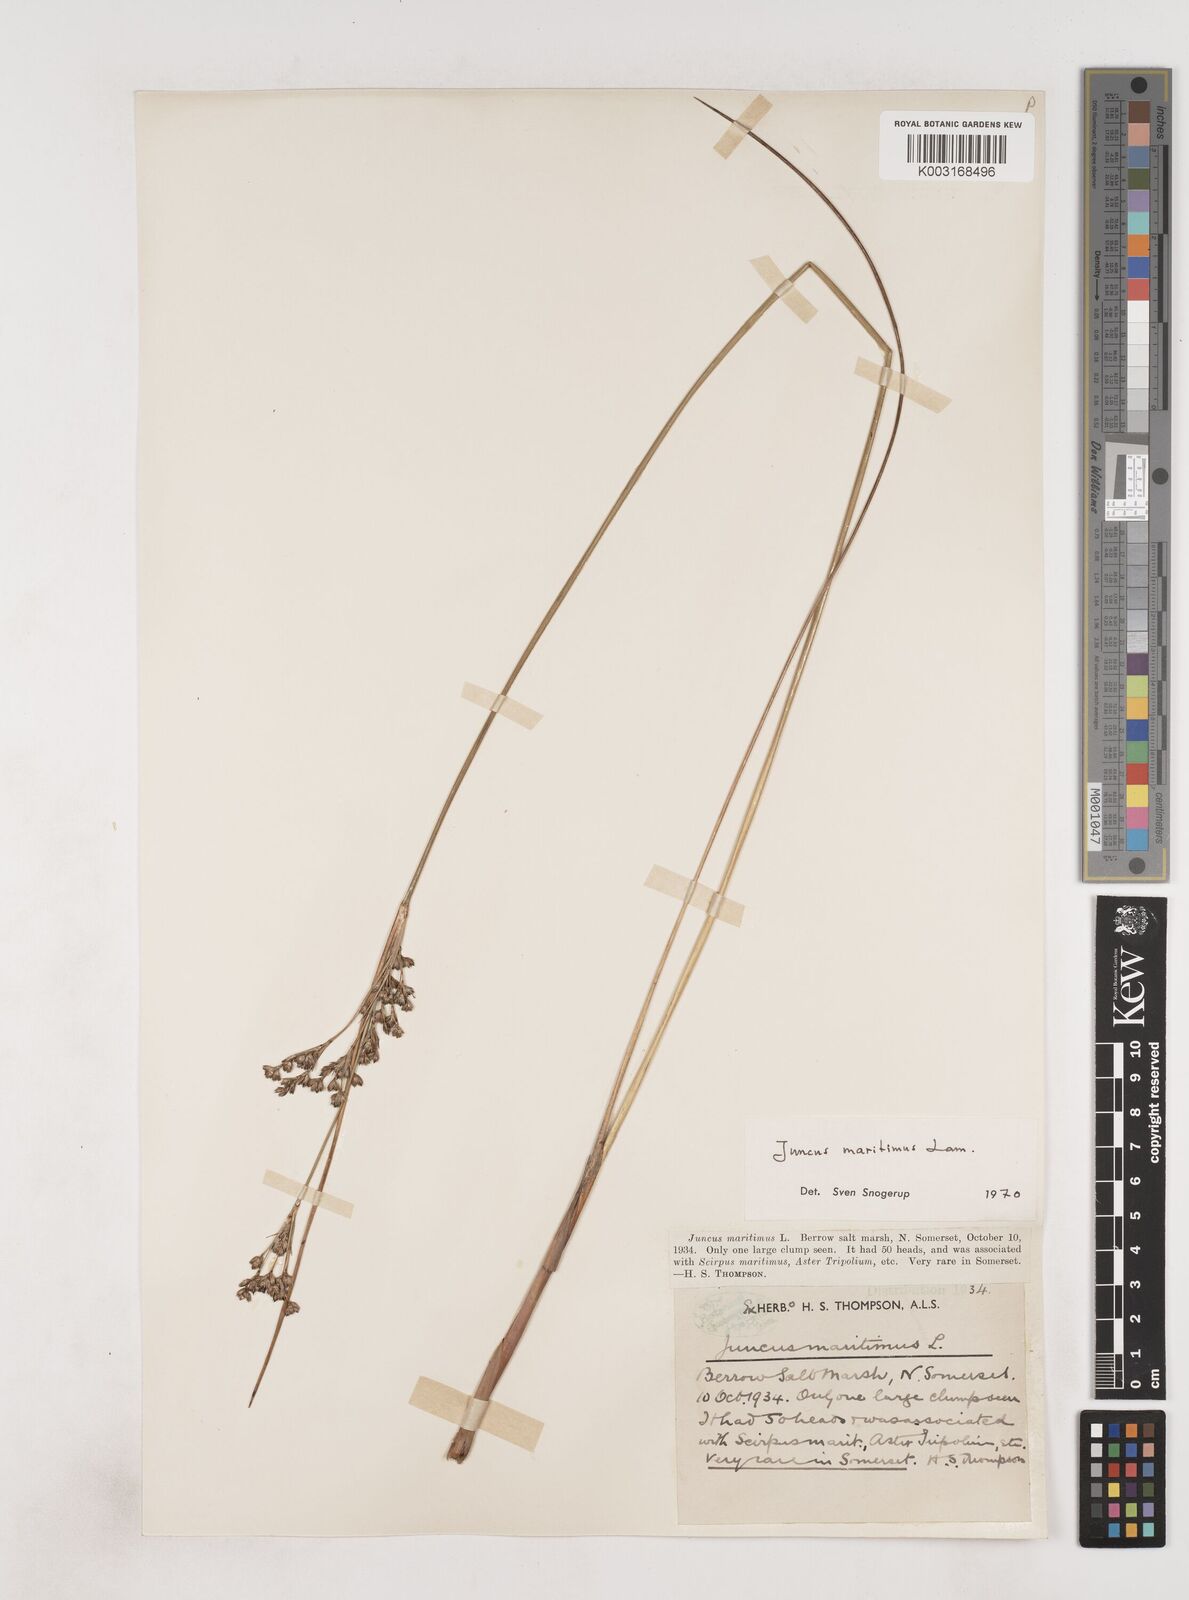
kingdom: Plantae
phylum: Tracheophyta
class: Liliopsida
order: Poales
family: Juncaceae
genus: Juncus
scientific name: Juncus maritimus
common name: Sea rush
